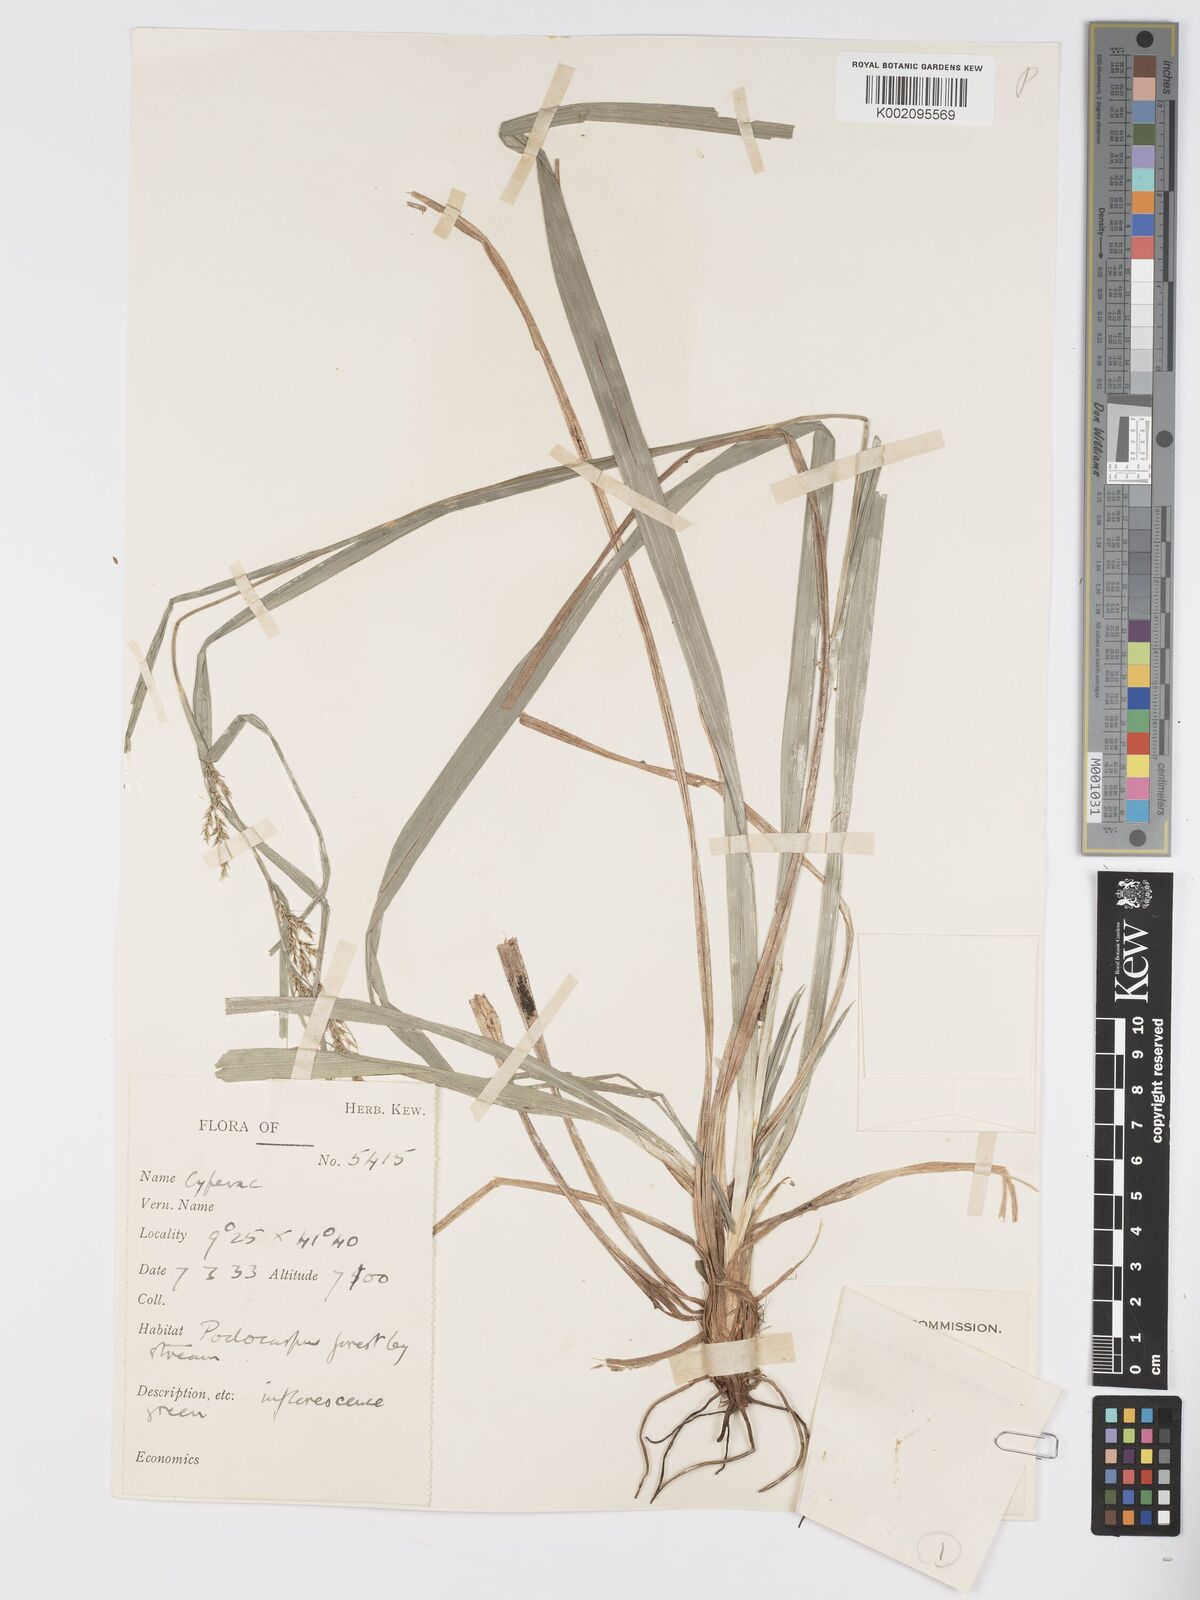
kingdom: Plantae
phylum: Tracheophyta
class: Liliopsida
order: Poales
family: Cyperaceae
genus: Carex
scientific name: Carex chlorosaccus
